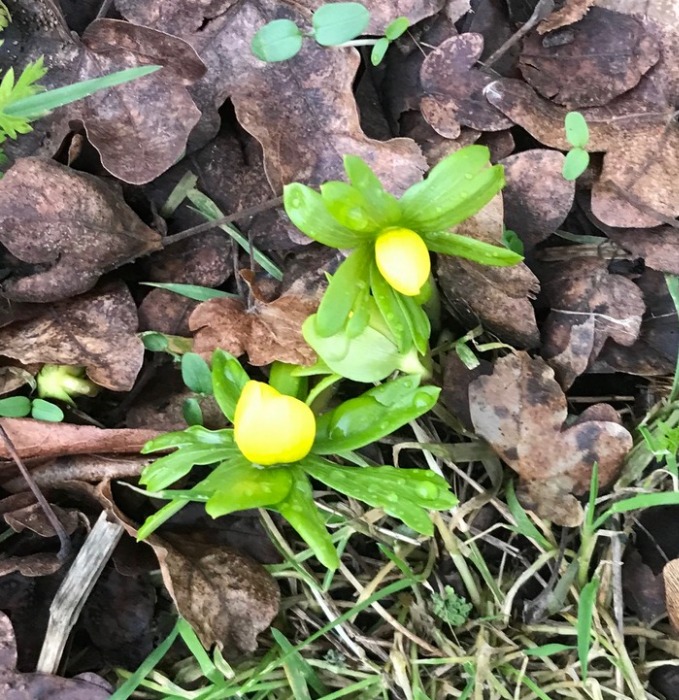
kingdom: Plantae
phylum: Tracheophyta
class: Magnoliopsida
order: Ranunculales
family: Ranunculaceae
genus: Eranthis
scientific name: Eranthis hyemalis
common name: Erantis
